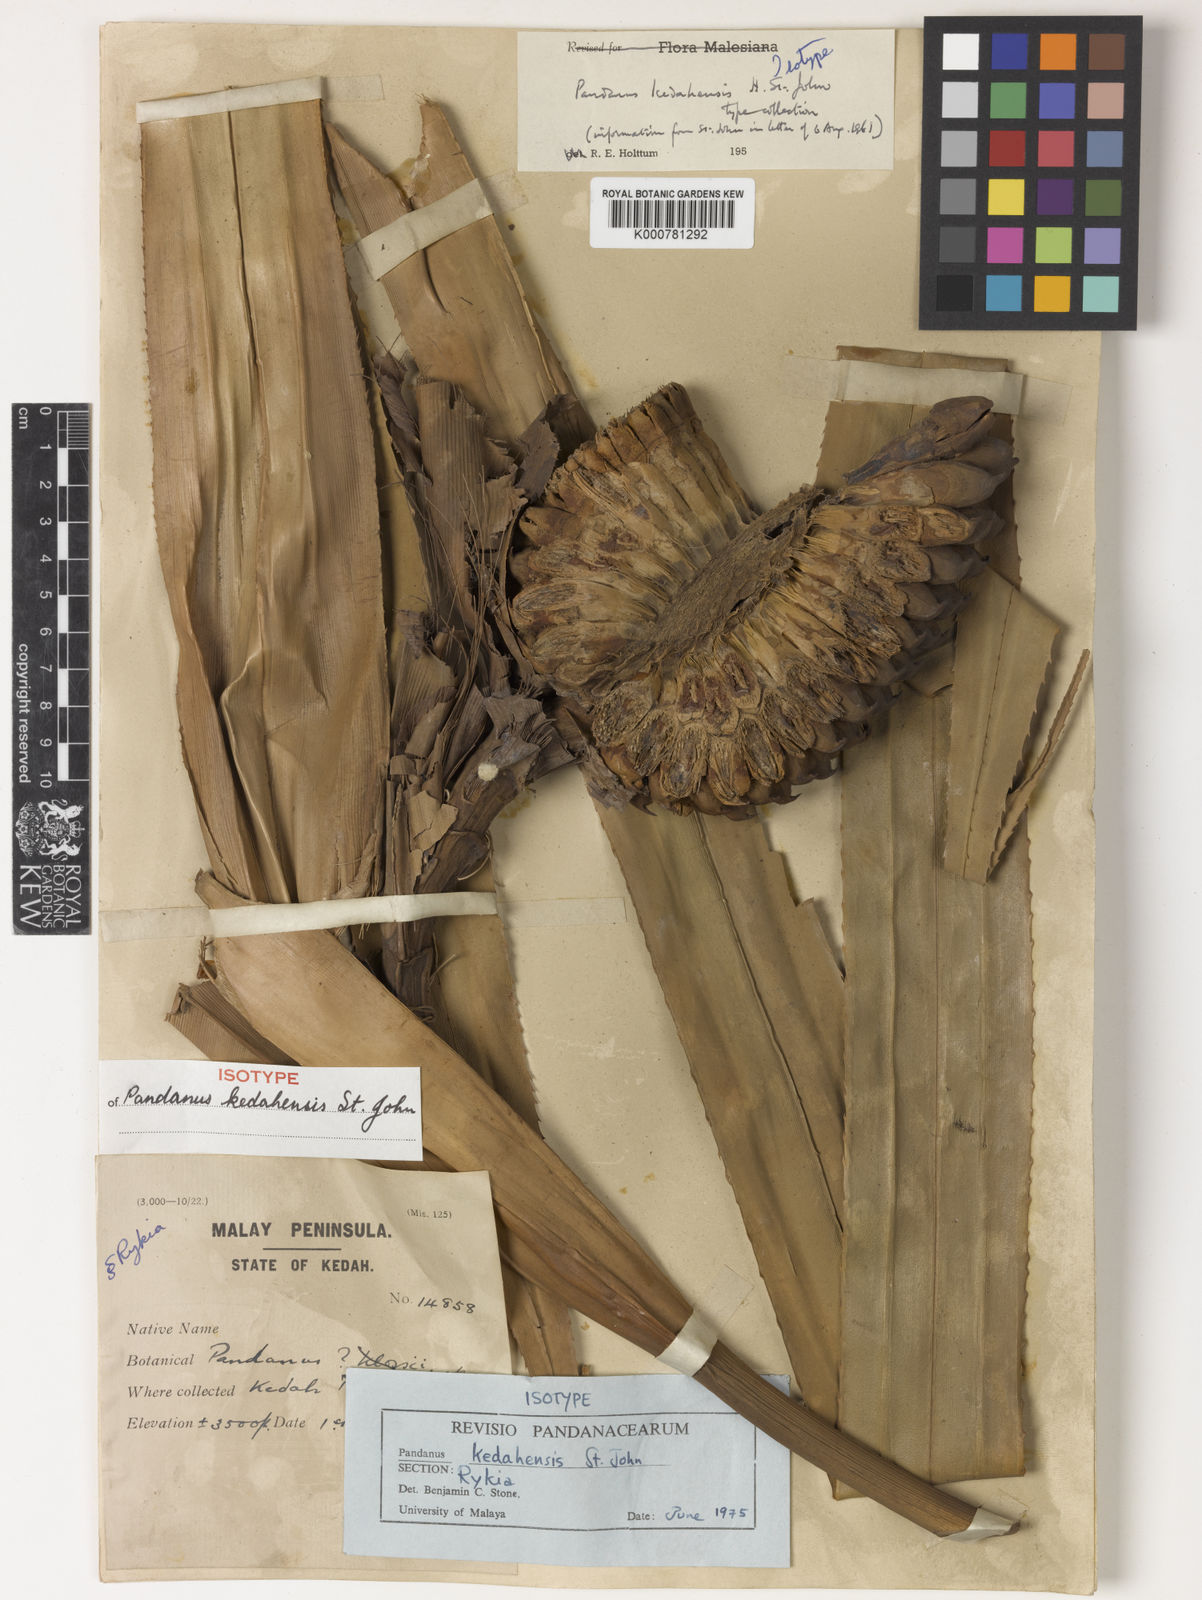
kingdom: Plantae
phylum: Tracheophyta
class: Liliopsida
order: Pandanales
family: Pandanaceae
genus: Pandanus
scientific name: Pandanus kedahensis
